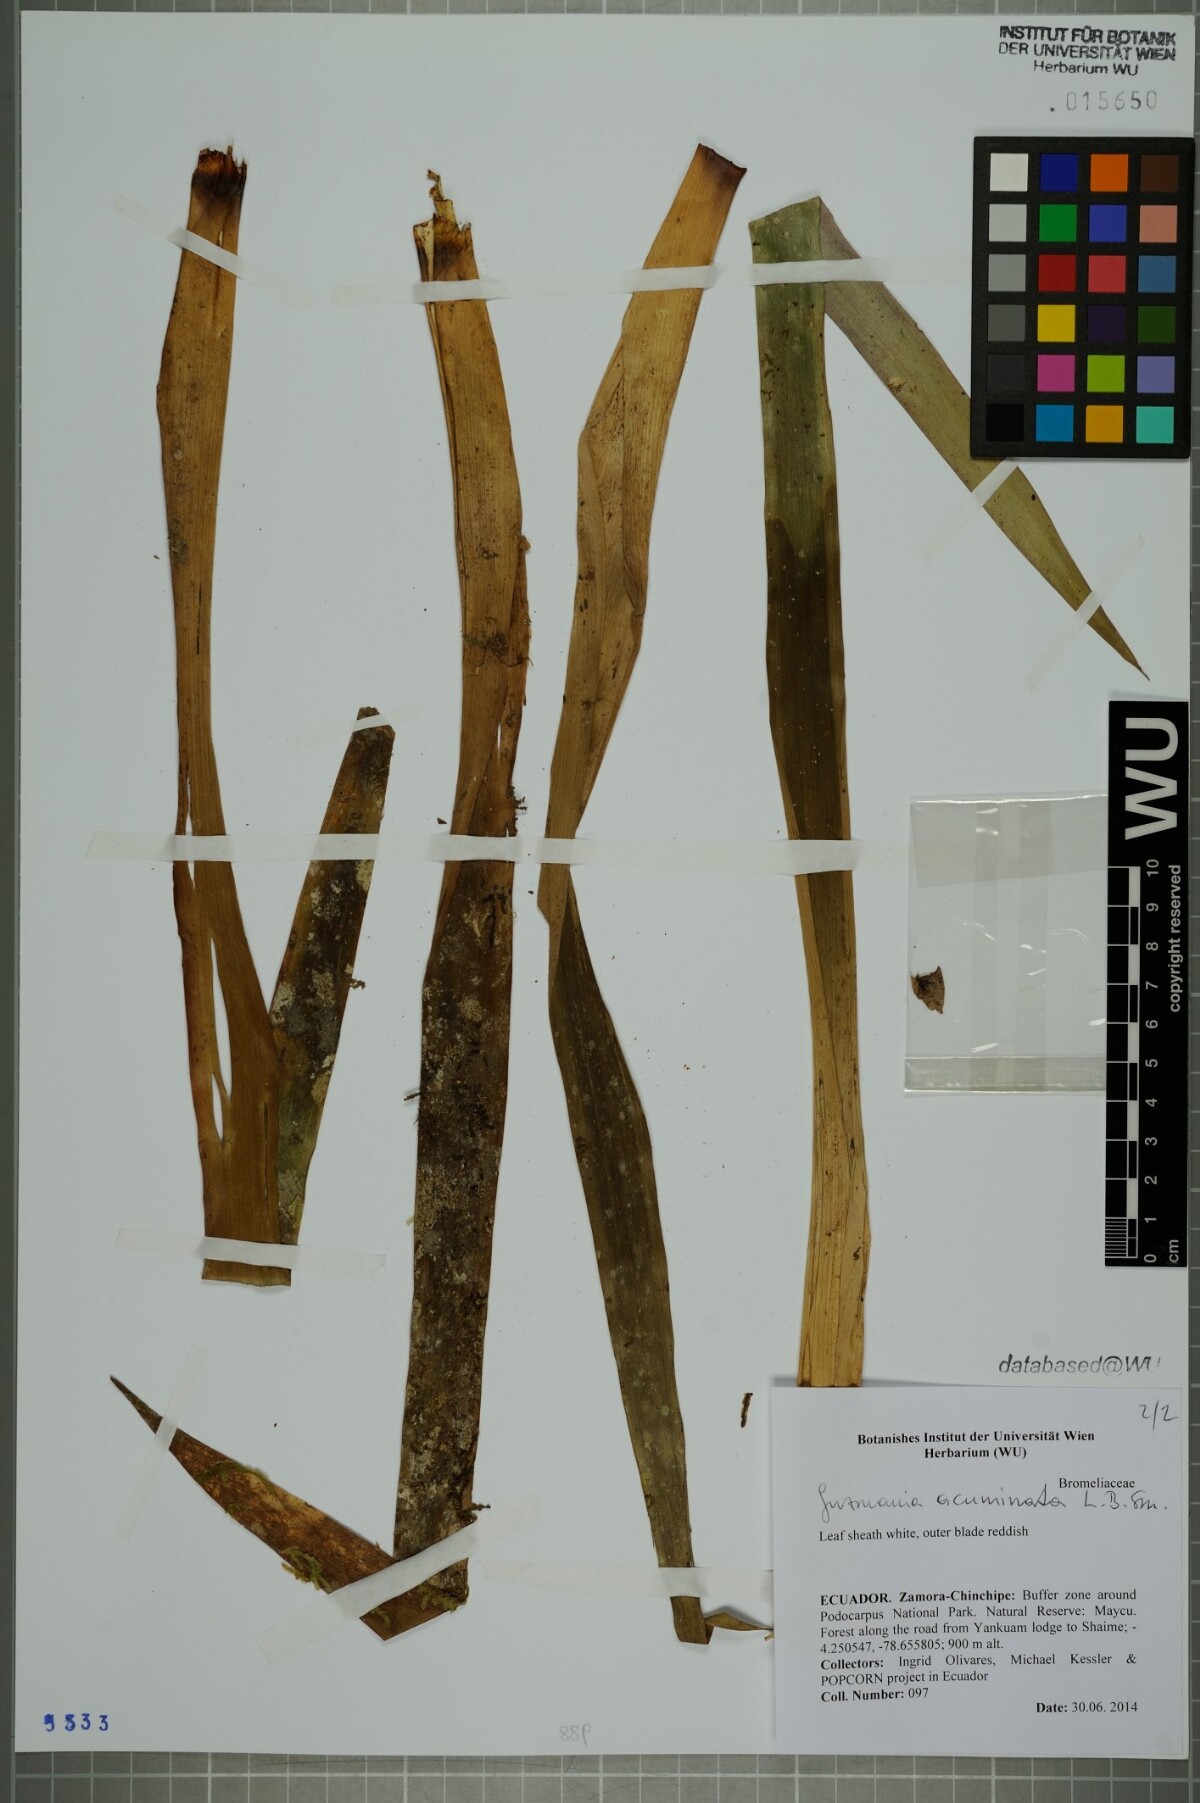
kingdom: Plantae
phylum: Tracheophyta
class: Liliopsida
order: Poales
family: Bromeliaceae
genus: Guzmania
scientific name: Guzmania acuminata
